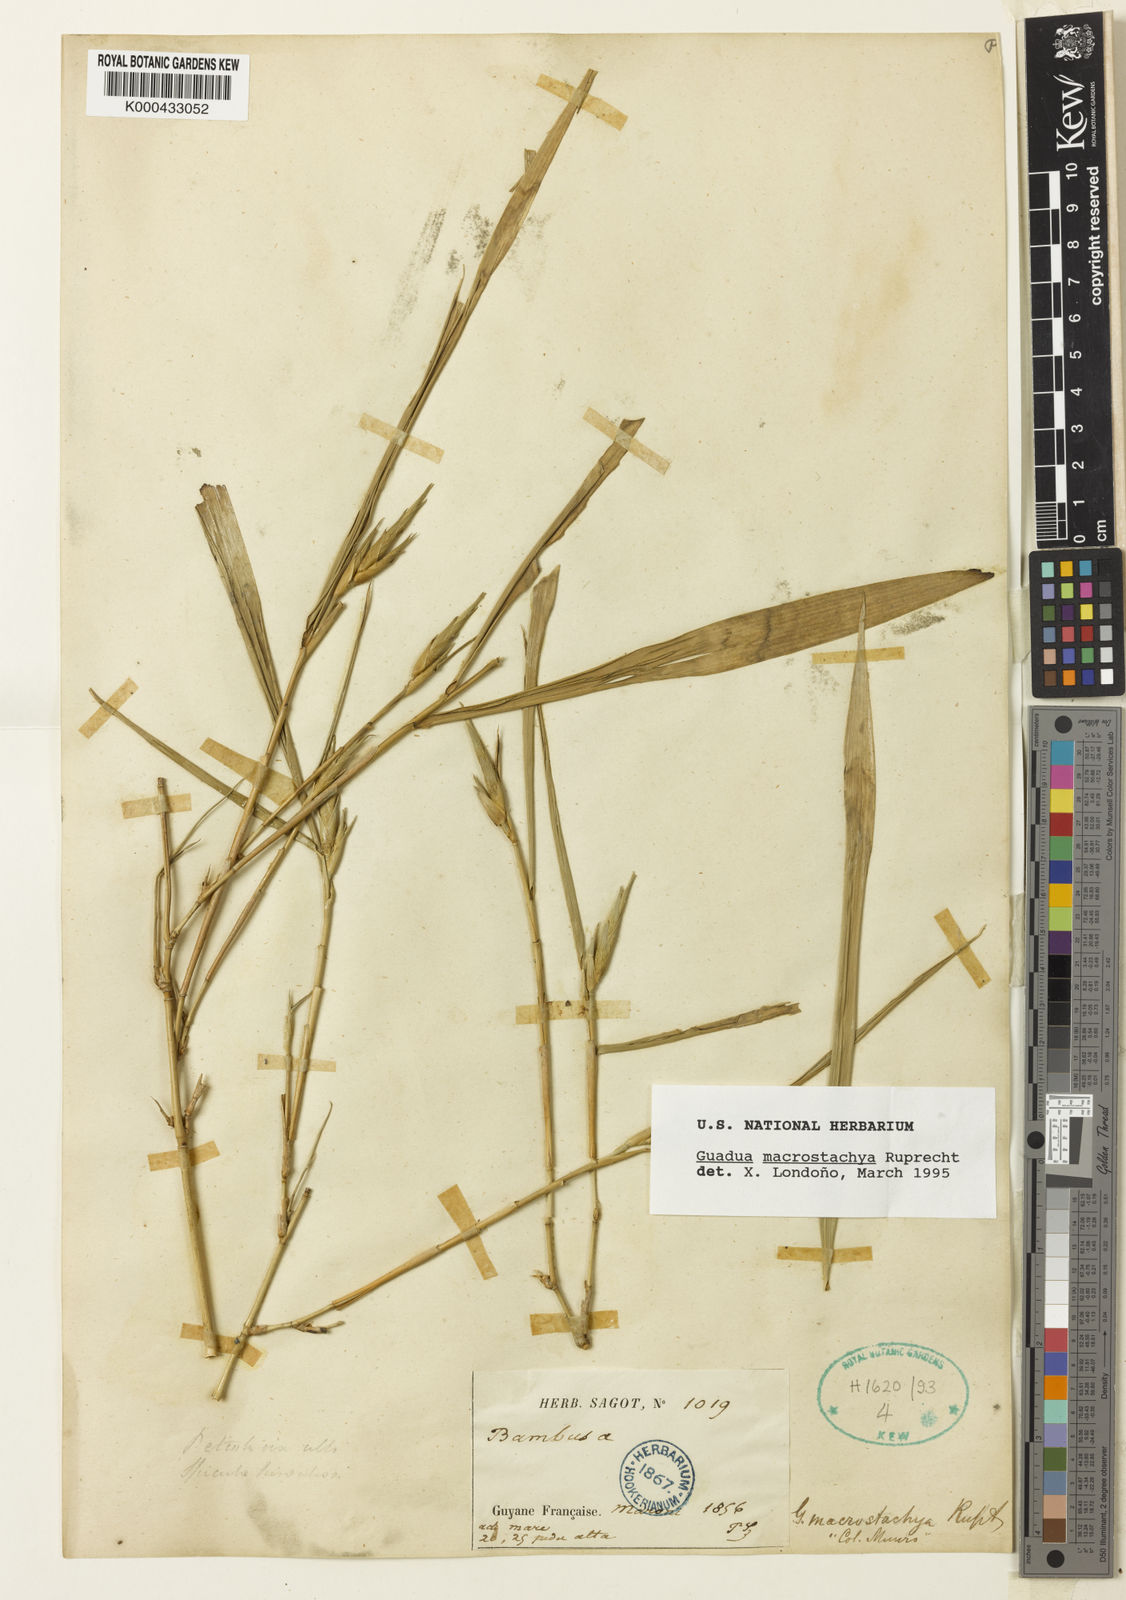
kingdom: Plantae
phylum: Tracheophyta
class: Liliopsida
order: Poales
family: Poaceae
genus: Guadua
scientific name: Guadua macrostachya
